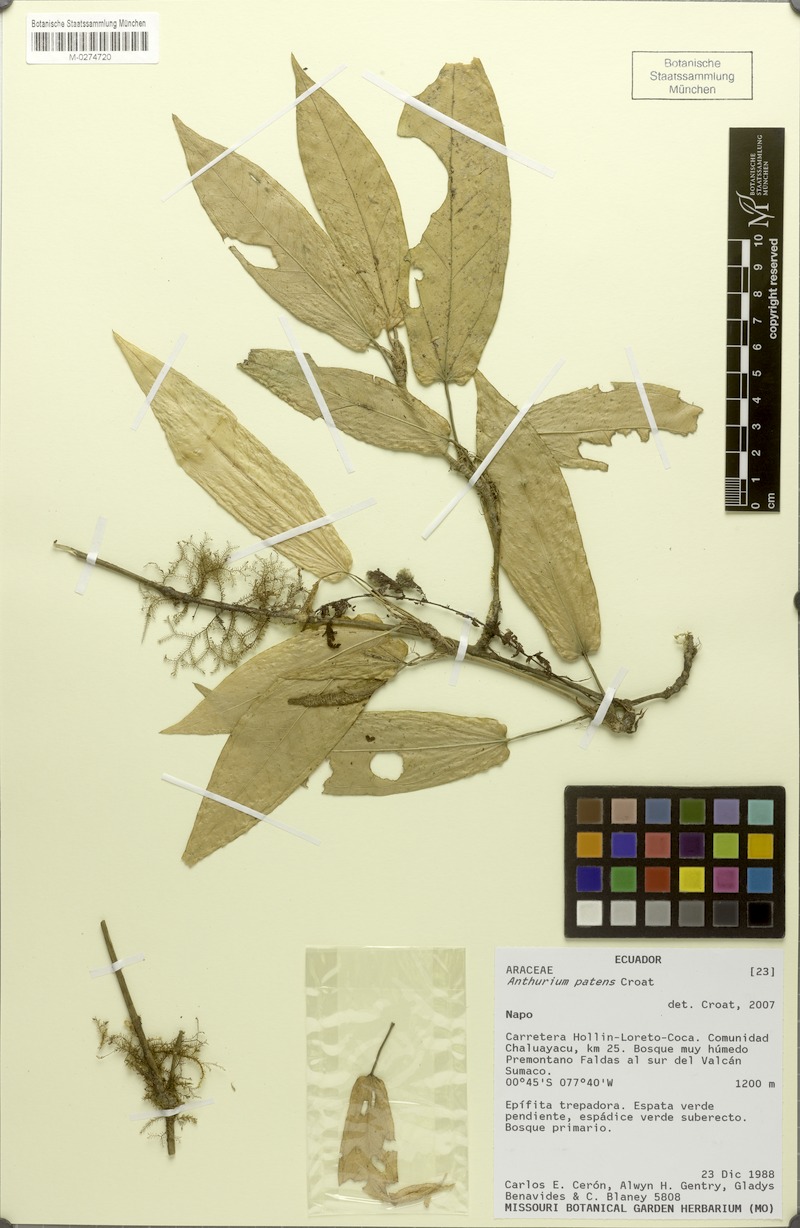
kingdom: Plantae
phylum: Tracheophyta
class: Liliopsida
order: Alismatales
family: Araceae
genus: Anthurium
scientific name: Anthurium patens
